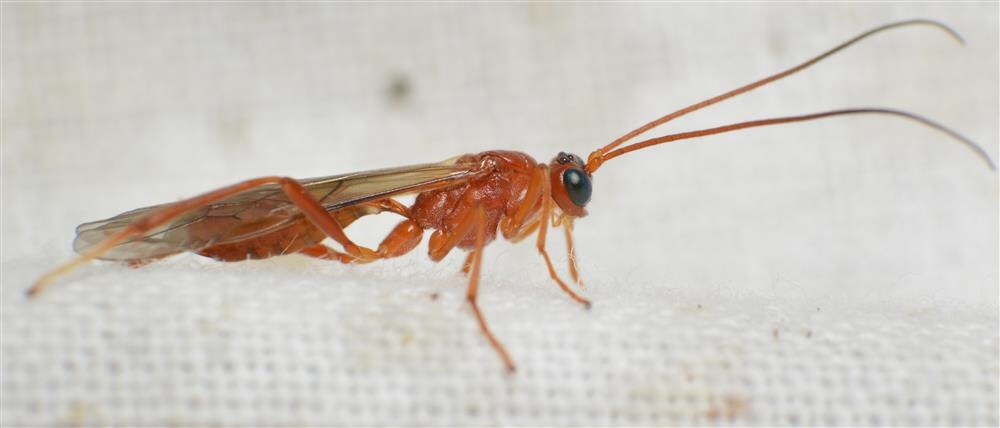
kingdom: Animalia
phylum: Arthropoda
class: Insecta
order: Hymenoptera
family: Braconidae
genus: Zele
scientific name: Zele albiditarsus
